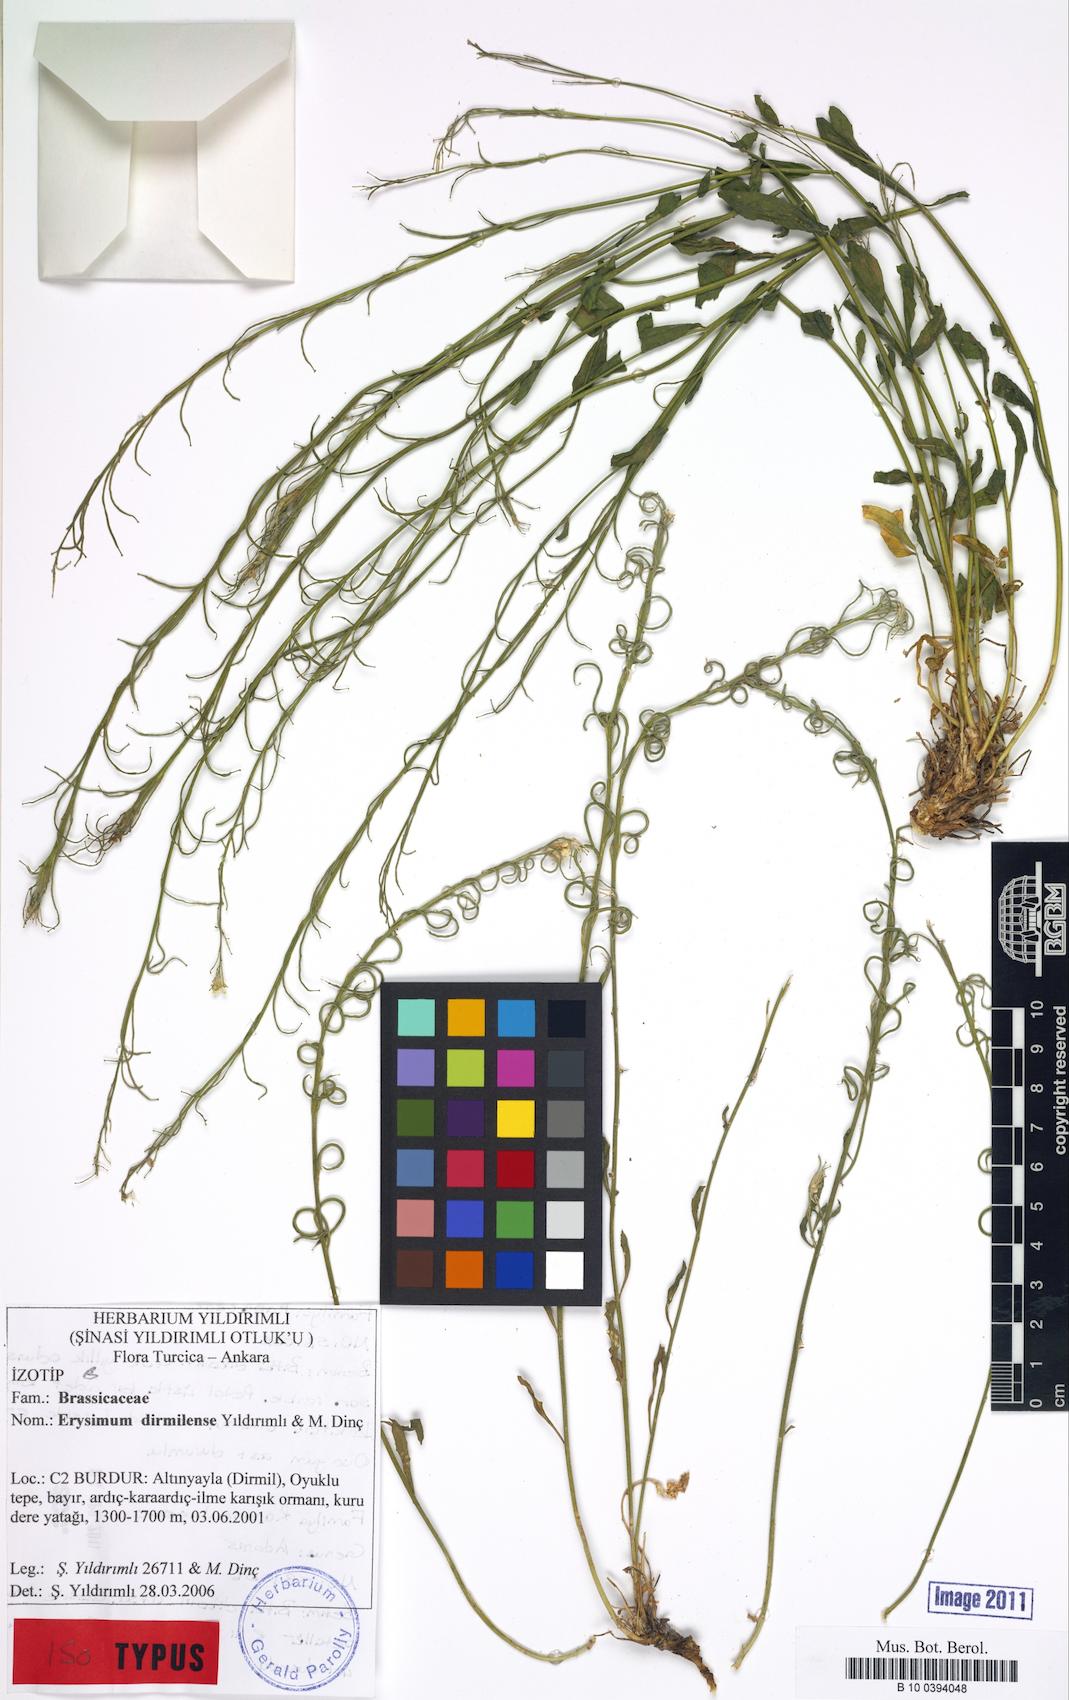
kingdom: Plantae
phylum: Tracheophyta
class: Magnoliopsida
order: Brassicales
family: Brassicaceae
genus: Erysimum
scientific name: Erysimum dirmilense
